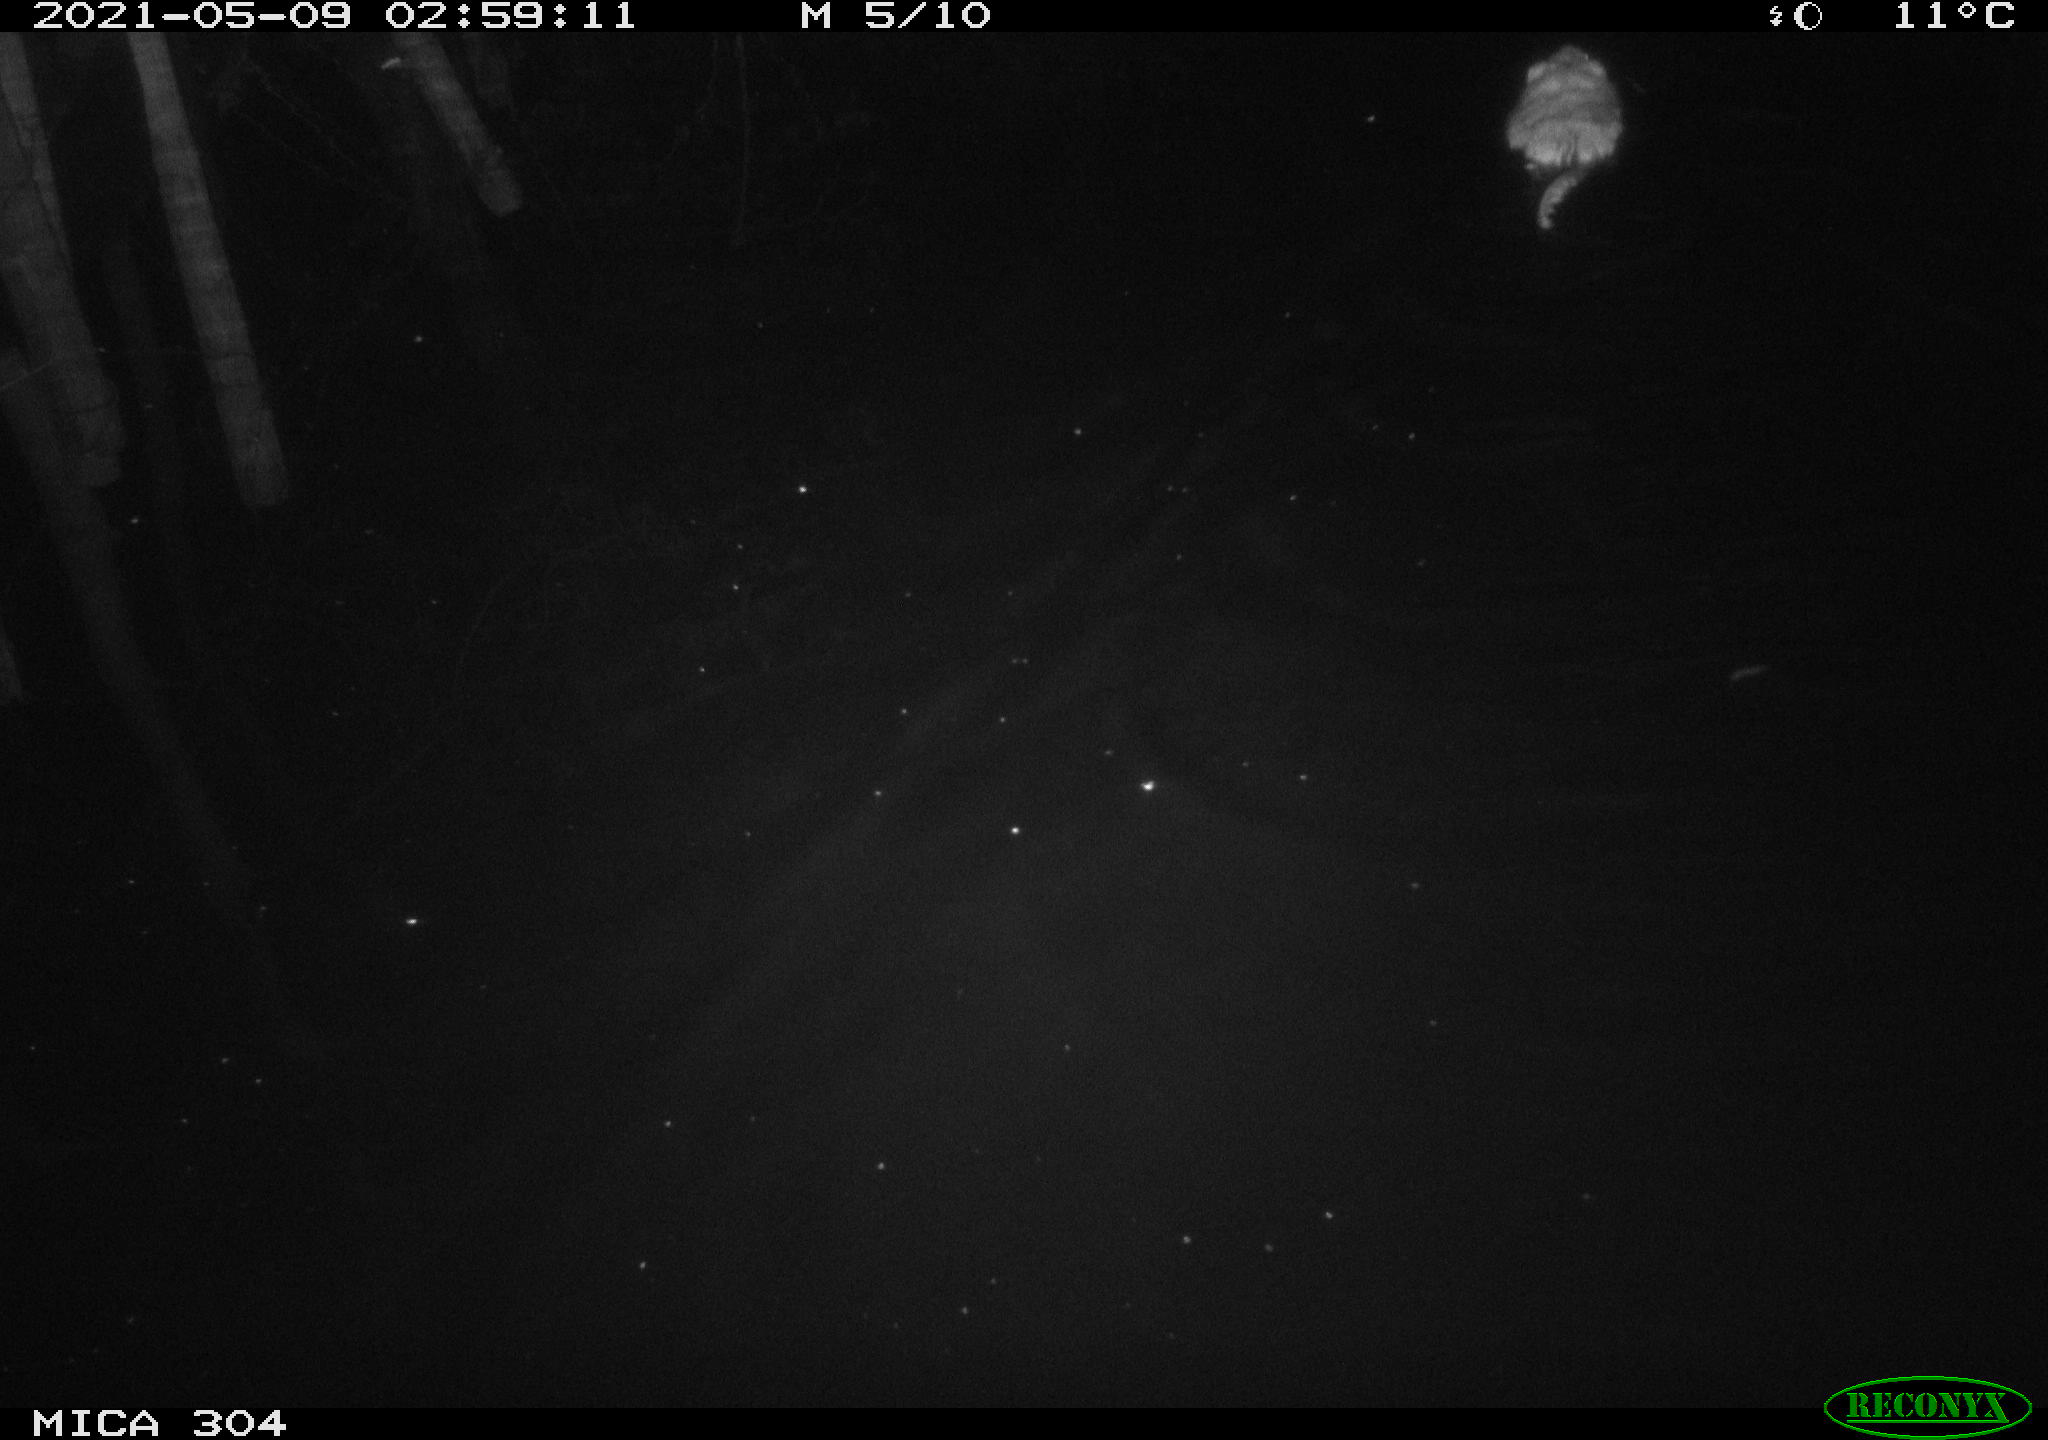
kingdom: Animalia
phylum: Chordata
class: Mammalia
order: Rodentia
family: Cricetidae
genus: Ondatra
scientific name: Ondatra zibethicus
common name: Muskrat
